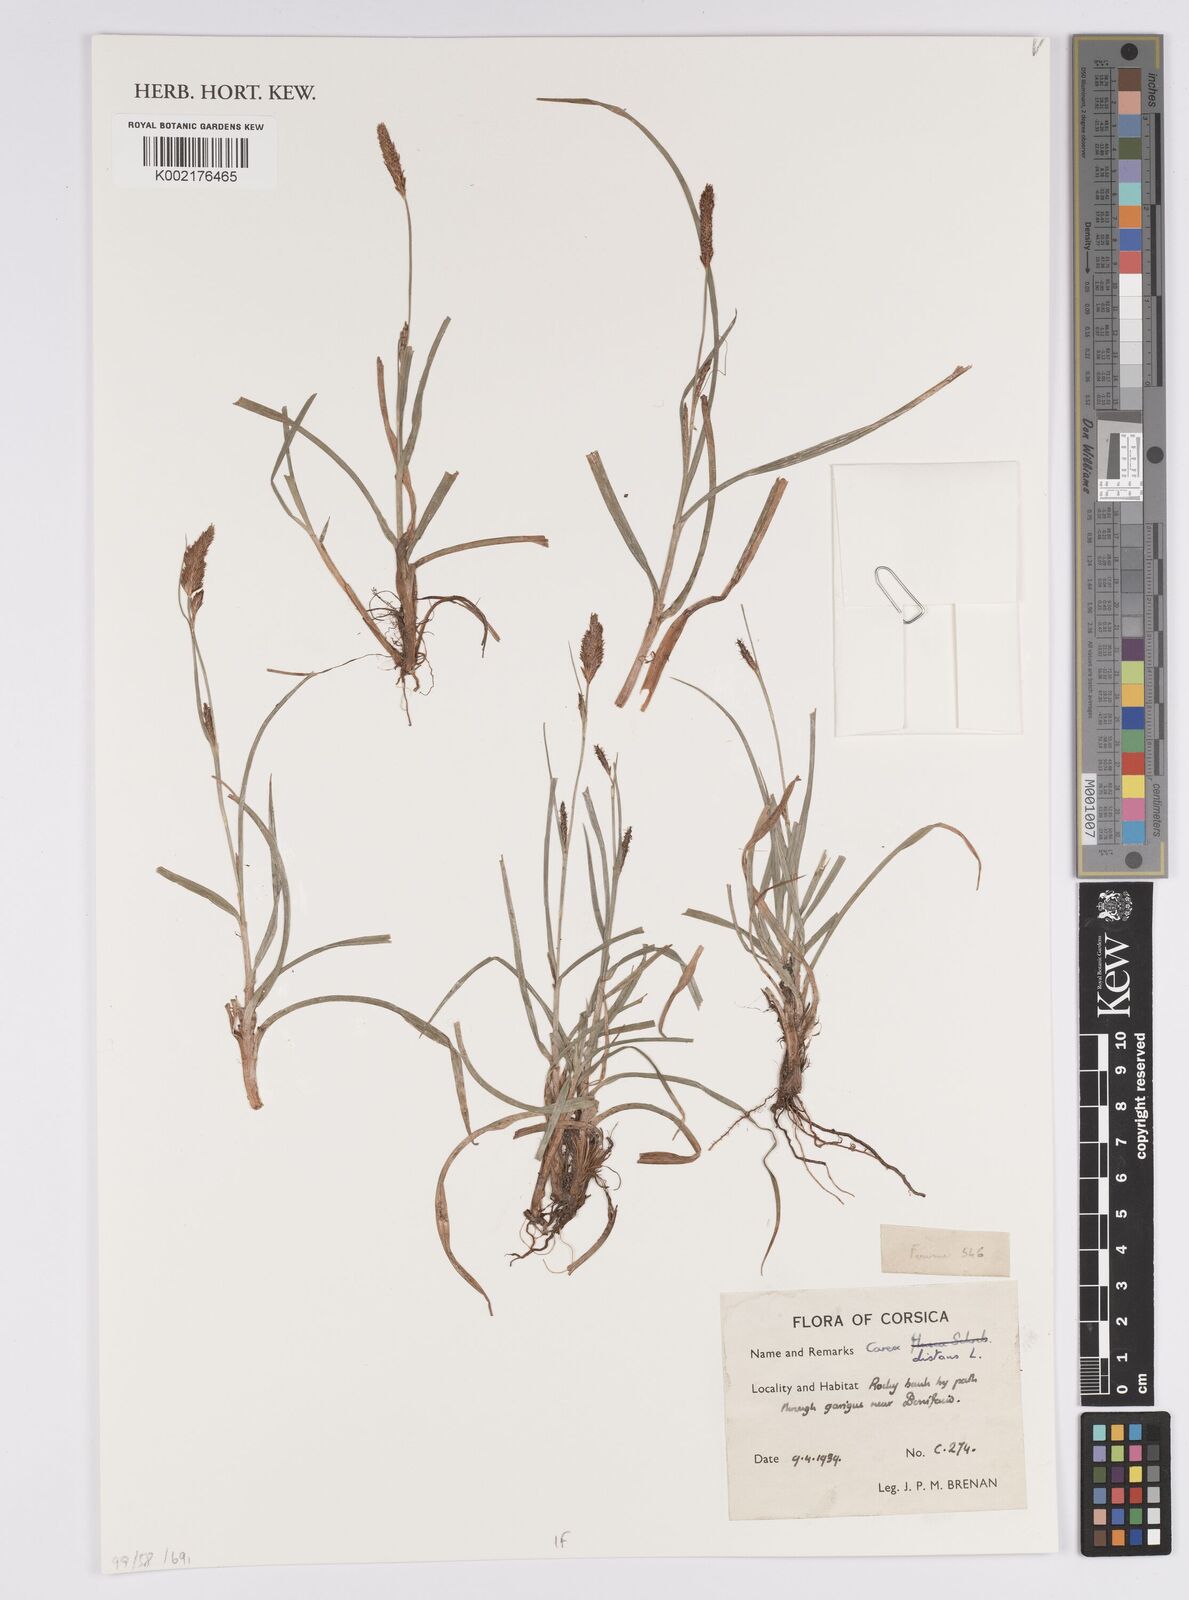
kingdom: Plantae
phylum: Tracheophyta
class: Liliopsida
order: Poales
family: Cyperaceae
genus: Carex
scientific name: Carex distans
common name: Distant sedge
